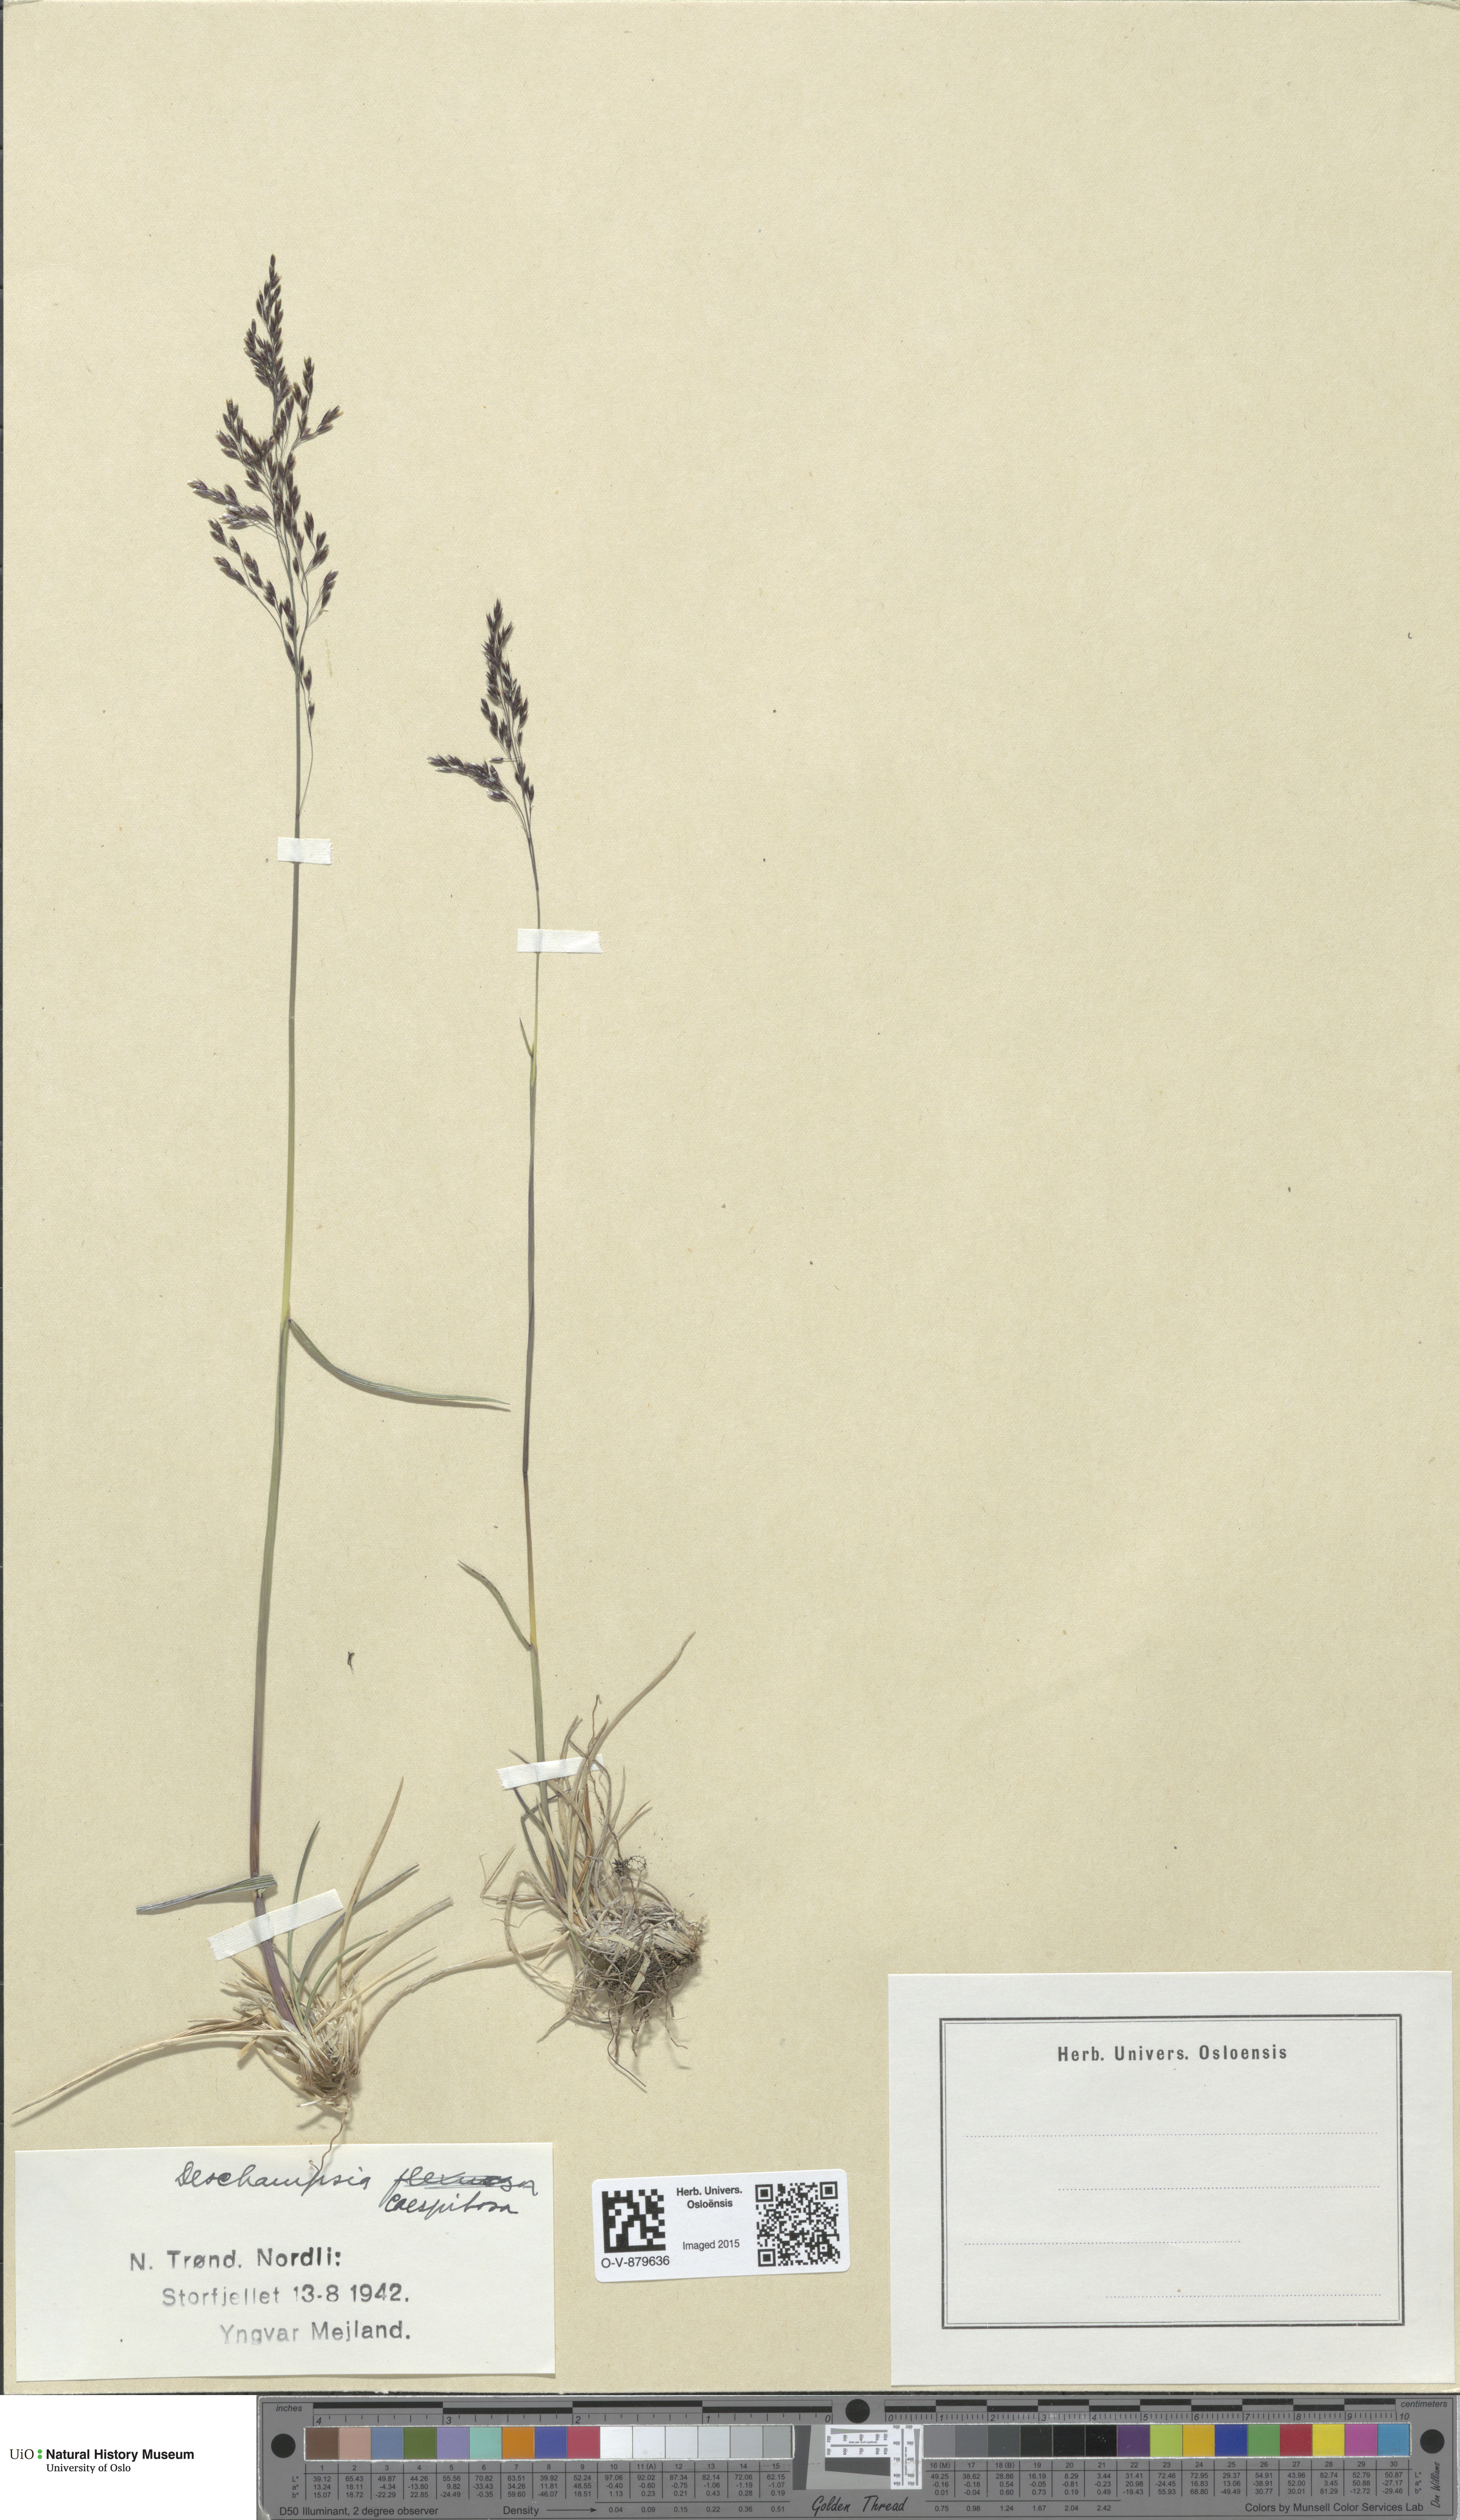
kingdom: Plantae
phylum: Tracheophyta
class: Liliopsida
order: Poales
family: Poaceae
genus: Deschampsia
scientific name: Deschampsia cespitosa
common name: Tufted hair-grass
